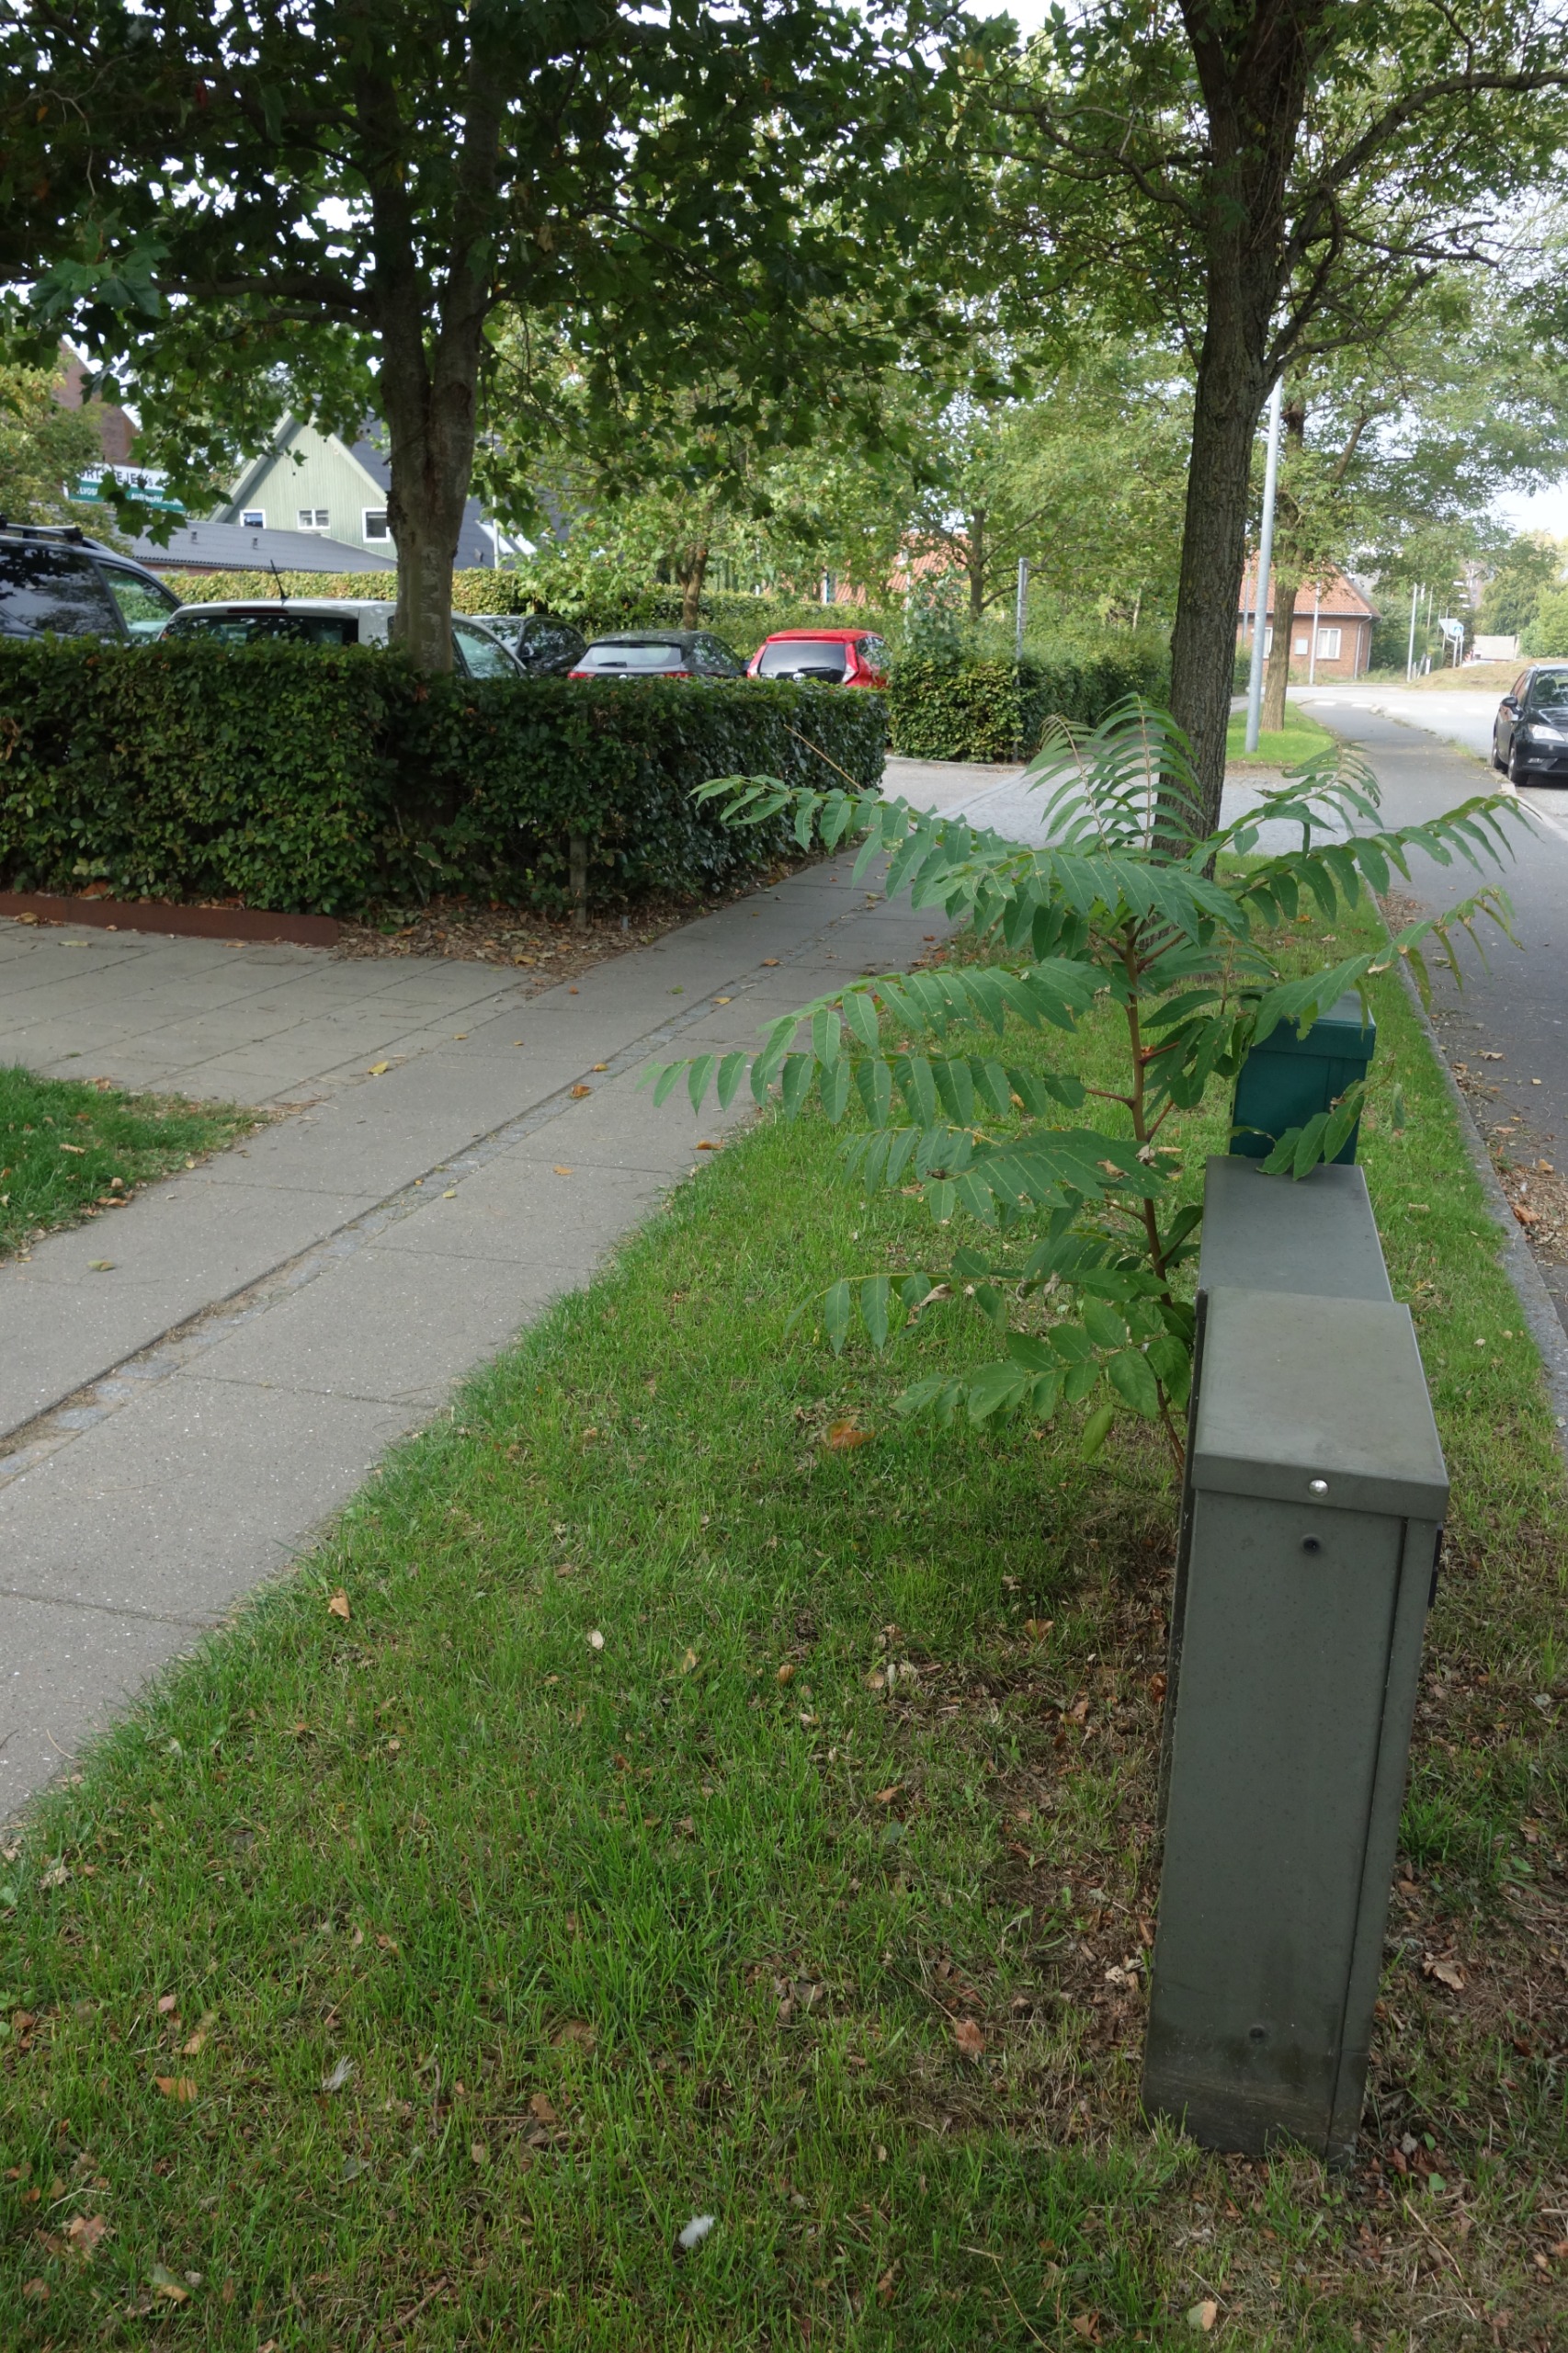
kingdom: Plantae
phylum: Tracheophyta
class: Magnoliopsida
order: Sapindales
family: Simaroubaceae
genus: Ailanthus
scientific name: Ailanthus altissima
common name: Skyrækker
